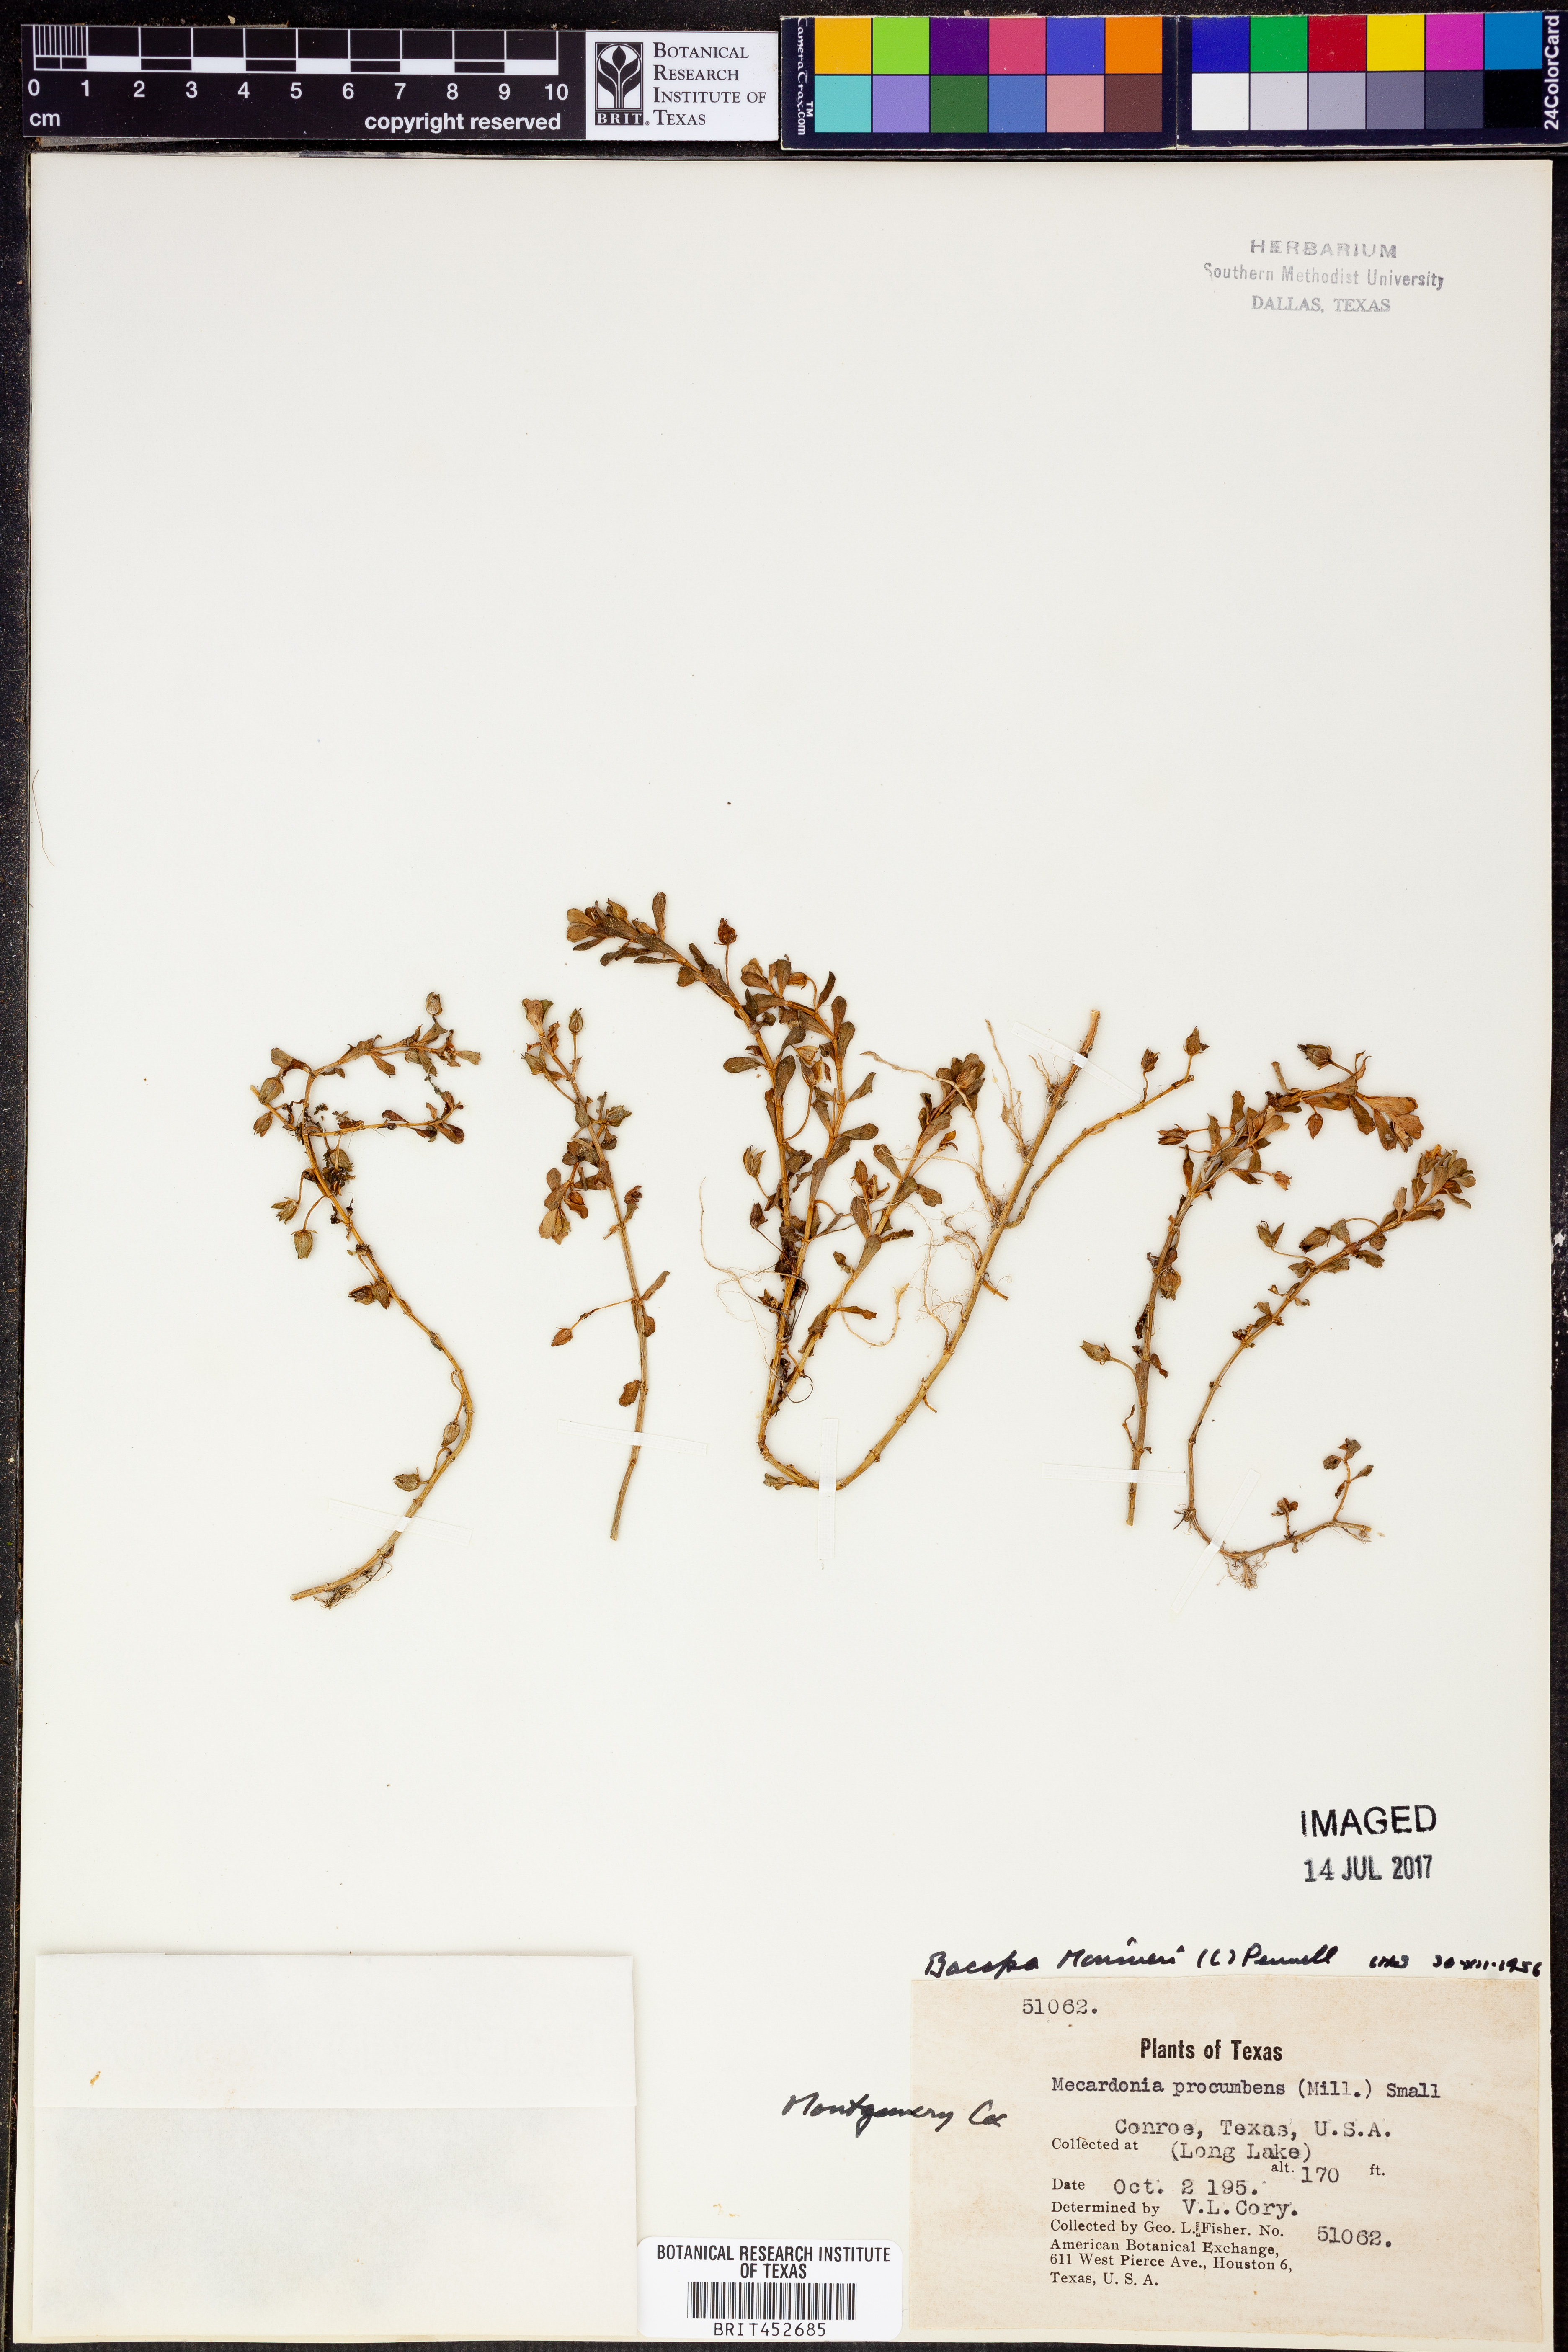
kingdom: Plantae
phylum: Tracheophyta
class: Magnoliopsida
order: Lamiales
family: Plantaginaceae
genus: Mecardonia
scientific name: Mecardonia procumbens
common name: Baby jump-up
